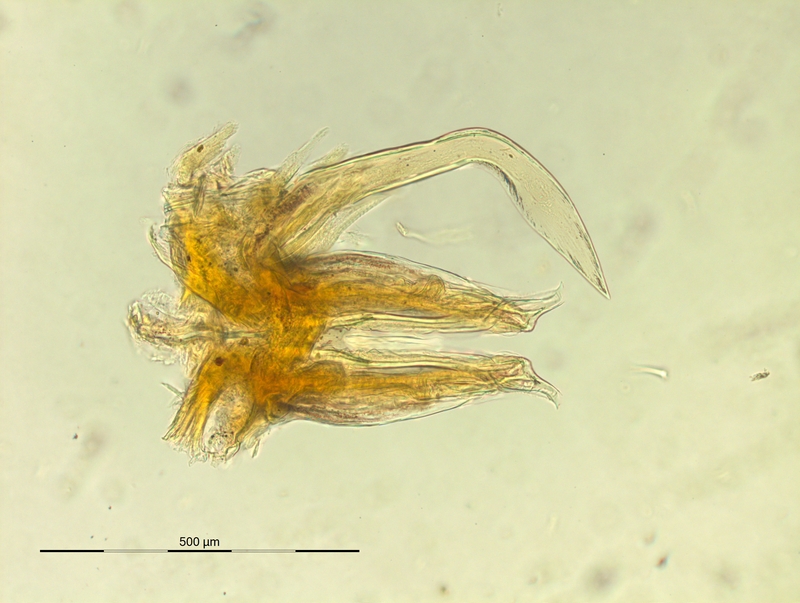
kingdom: Animalia
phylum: Arthropoda
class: Diplopoda
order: Chordeumatida
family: Craspedosomatidae
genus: Iulogona
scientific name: Iulogona tirolense
